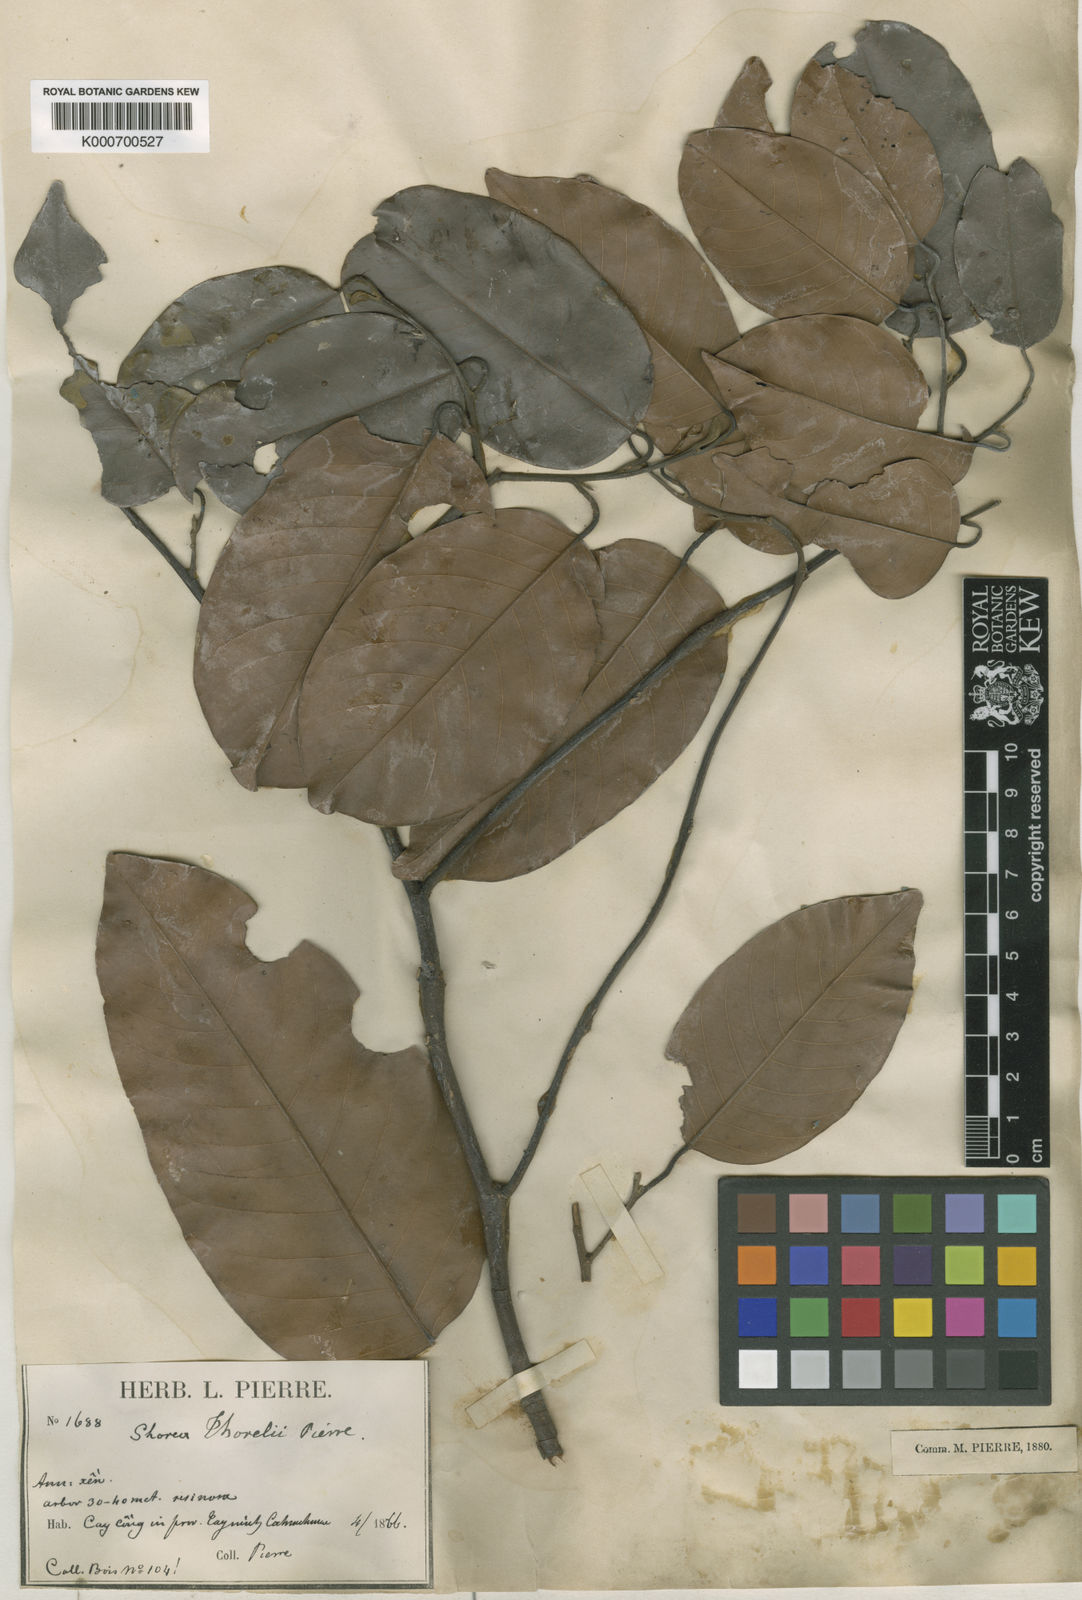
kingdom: Plantae
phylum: Tracheophyta
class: Magnoliopsida
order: Malvales
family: Dipterocarpaceae
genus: Shorea
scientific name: Shorea thorelii
